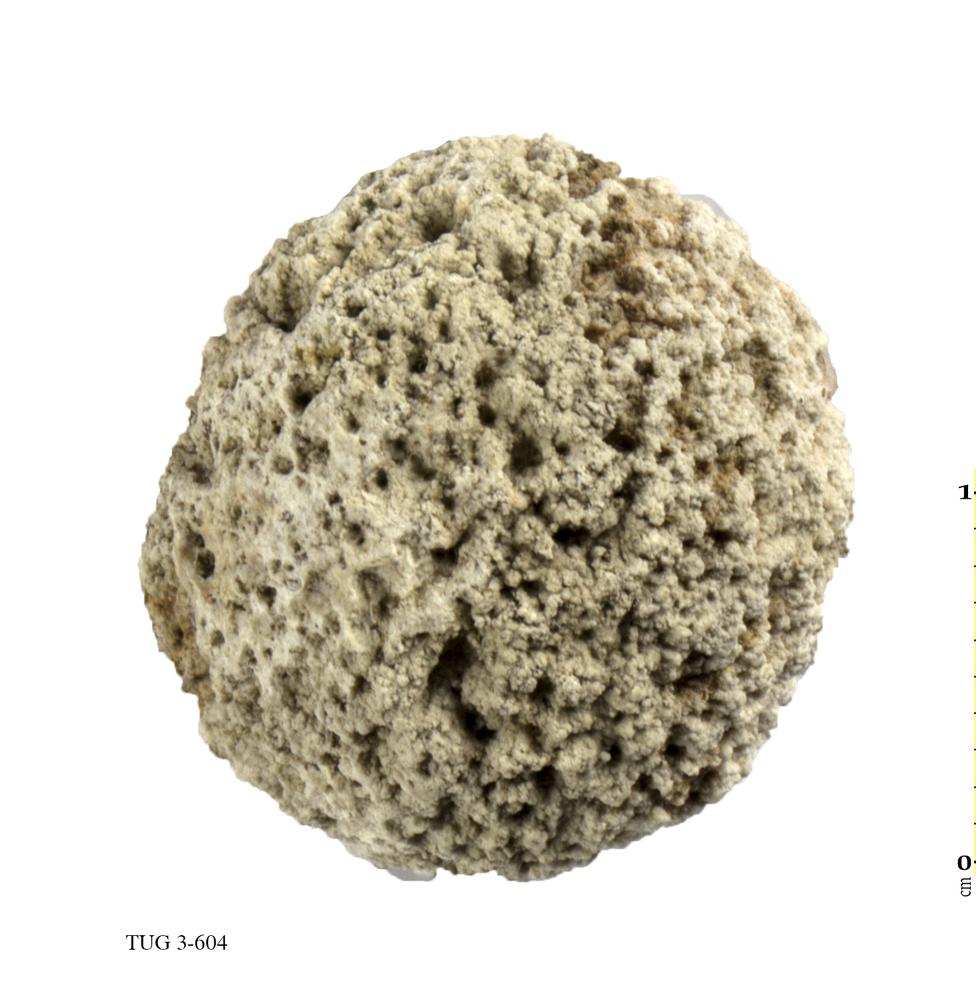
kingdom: Animalia
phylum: Porifera
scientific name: Porifera
